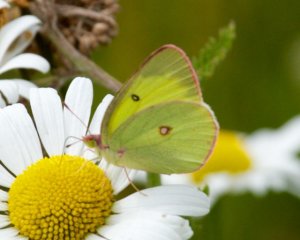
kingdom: Animalia
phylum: Arthropoda
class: Insecta
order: Lepidoptera
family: Pieridae
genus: Colias
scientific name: Colias interior
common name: Pink-edged Sulphur
